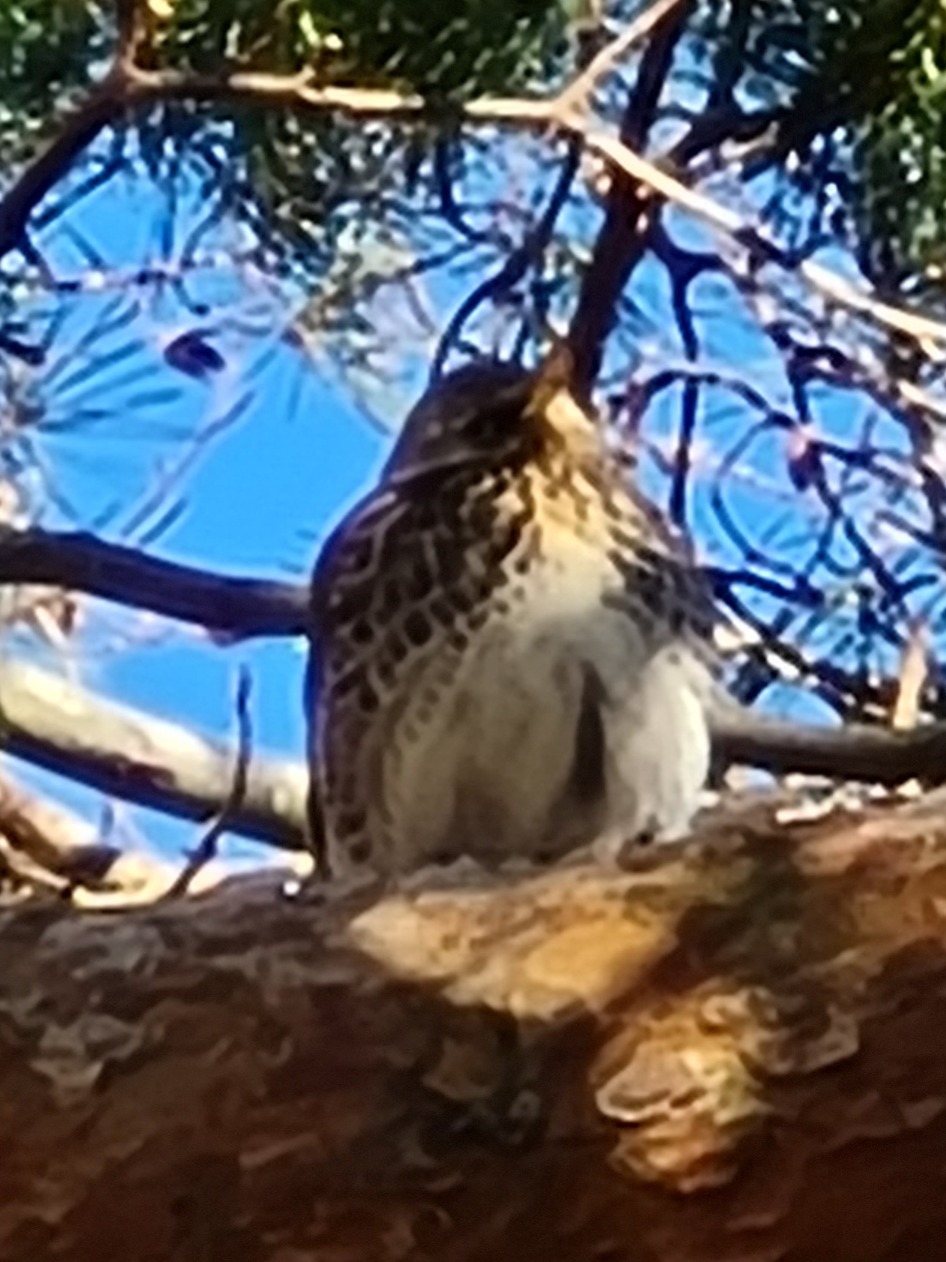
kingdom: Animalia
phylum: Chordata
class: Aves
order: Passeriformes
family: Turdidae
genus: Turdus
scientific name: Turdus pilaris
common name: Sjagger
